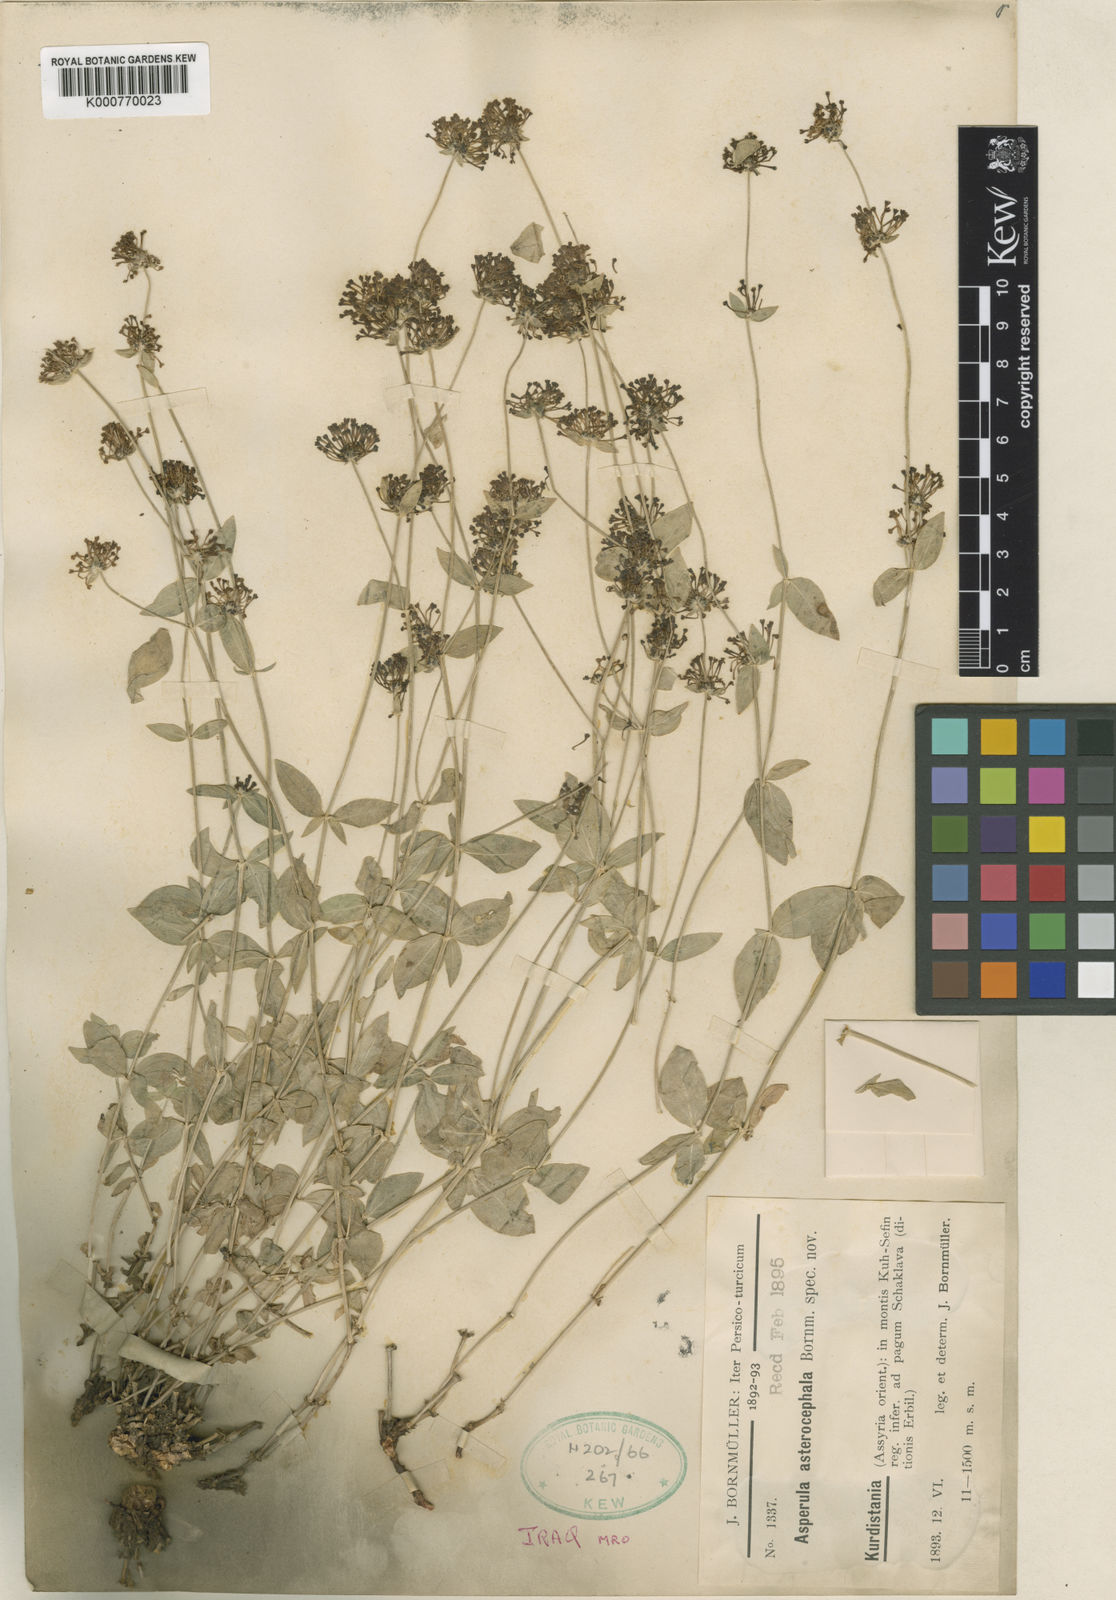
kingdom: Plantae
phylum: Tracheophyta
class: Magnoliopsida
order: Gentianales
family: Rubiaceae
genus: Asperula
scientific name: Asperula asterocephala
